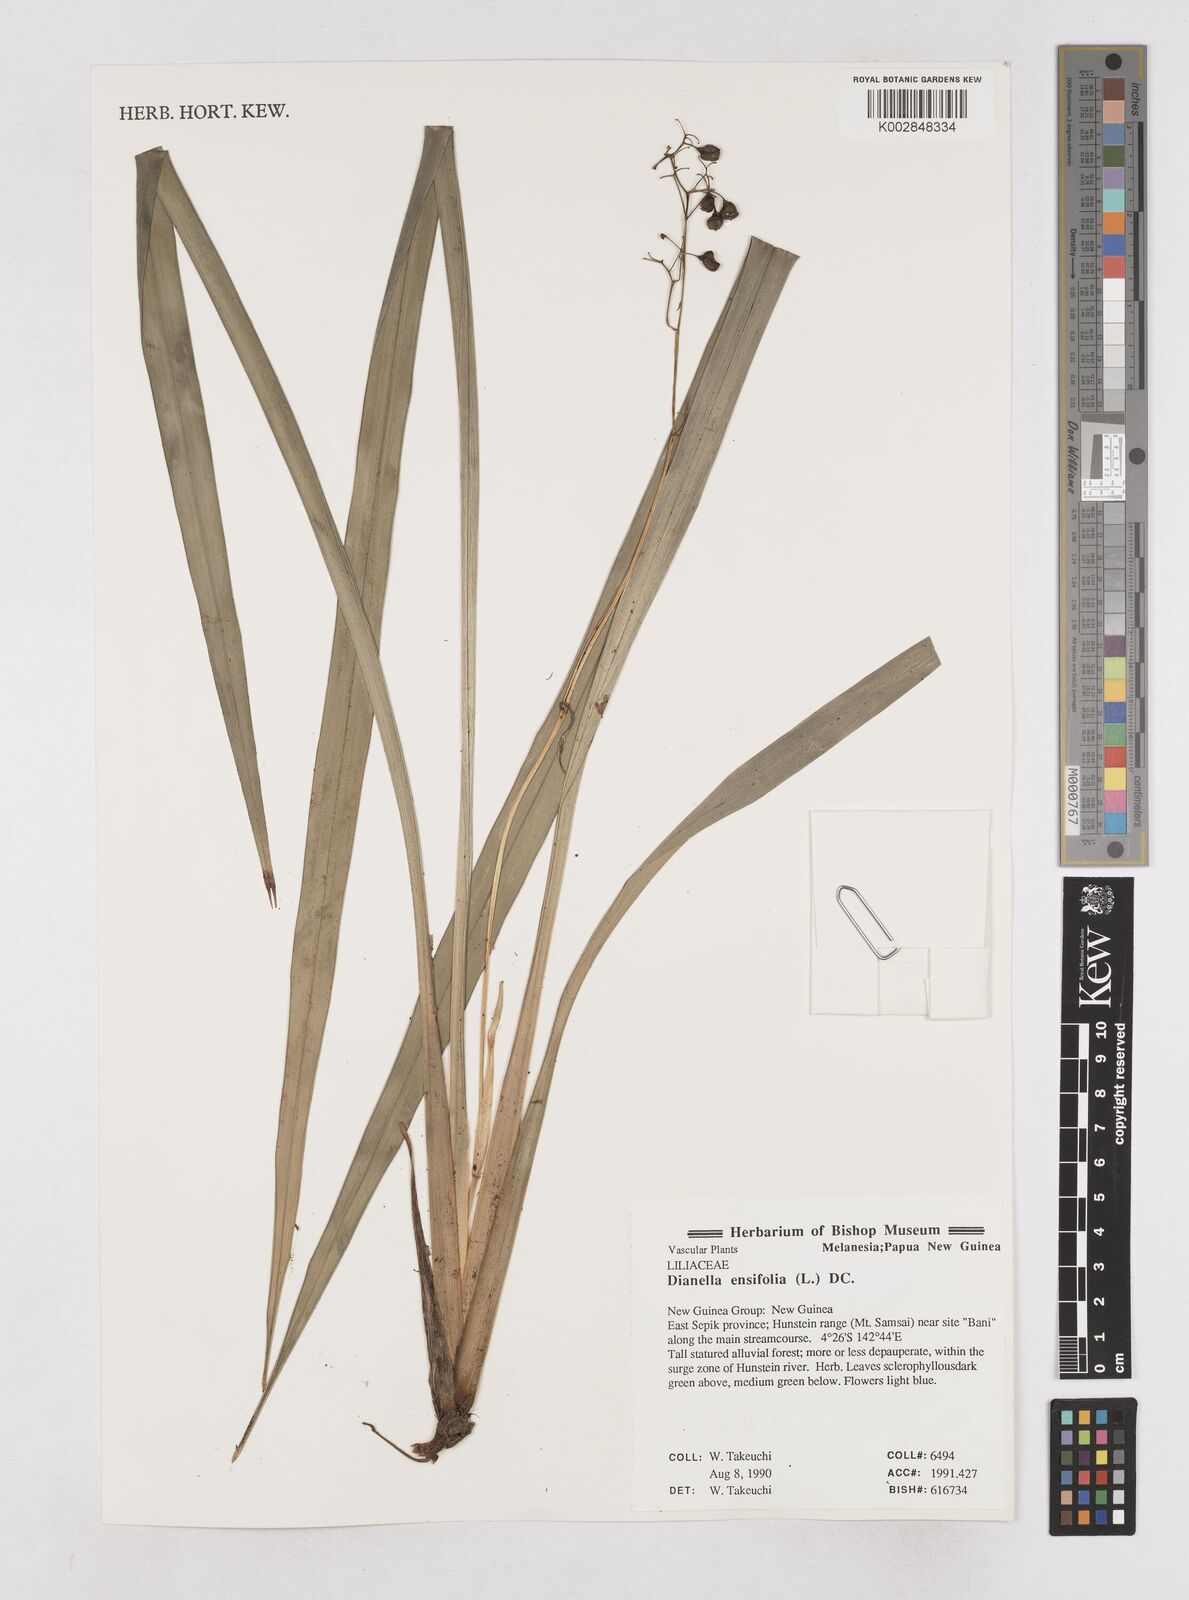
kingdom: Plantae
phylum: Tracheophyta
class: Liliopsida
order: Asparagales
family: Asphodelaceae
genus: Dianella
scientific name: Dianella ensifolia
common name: New zealand lilyplant
